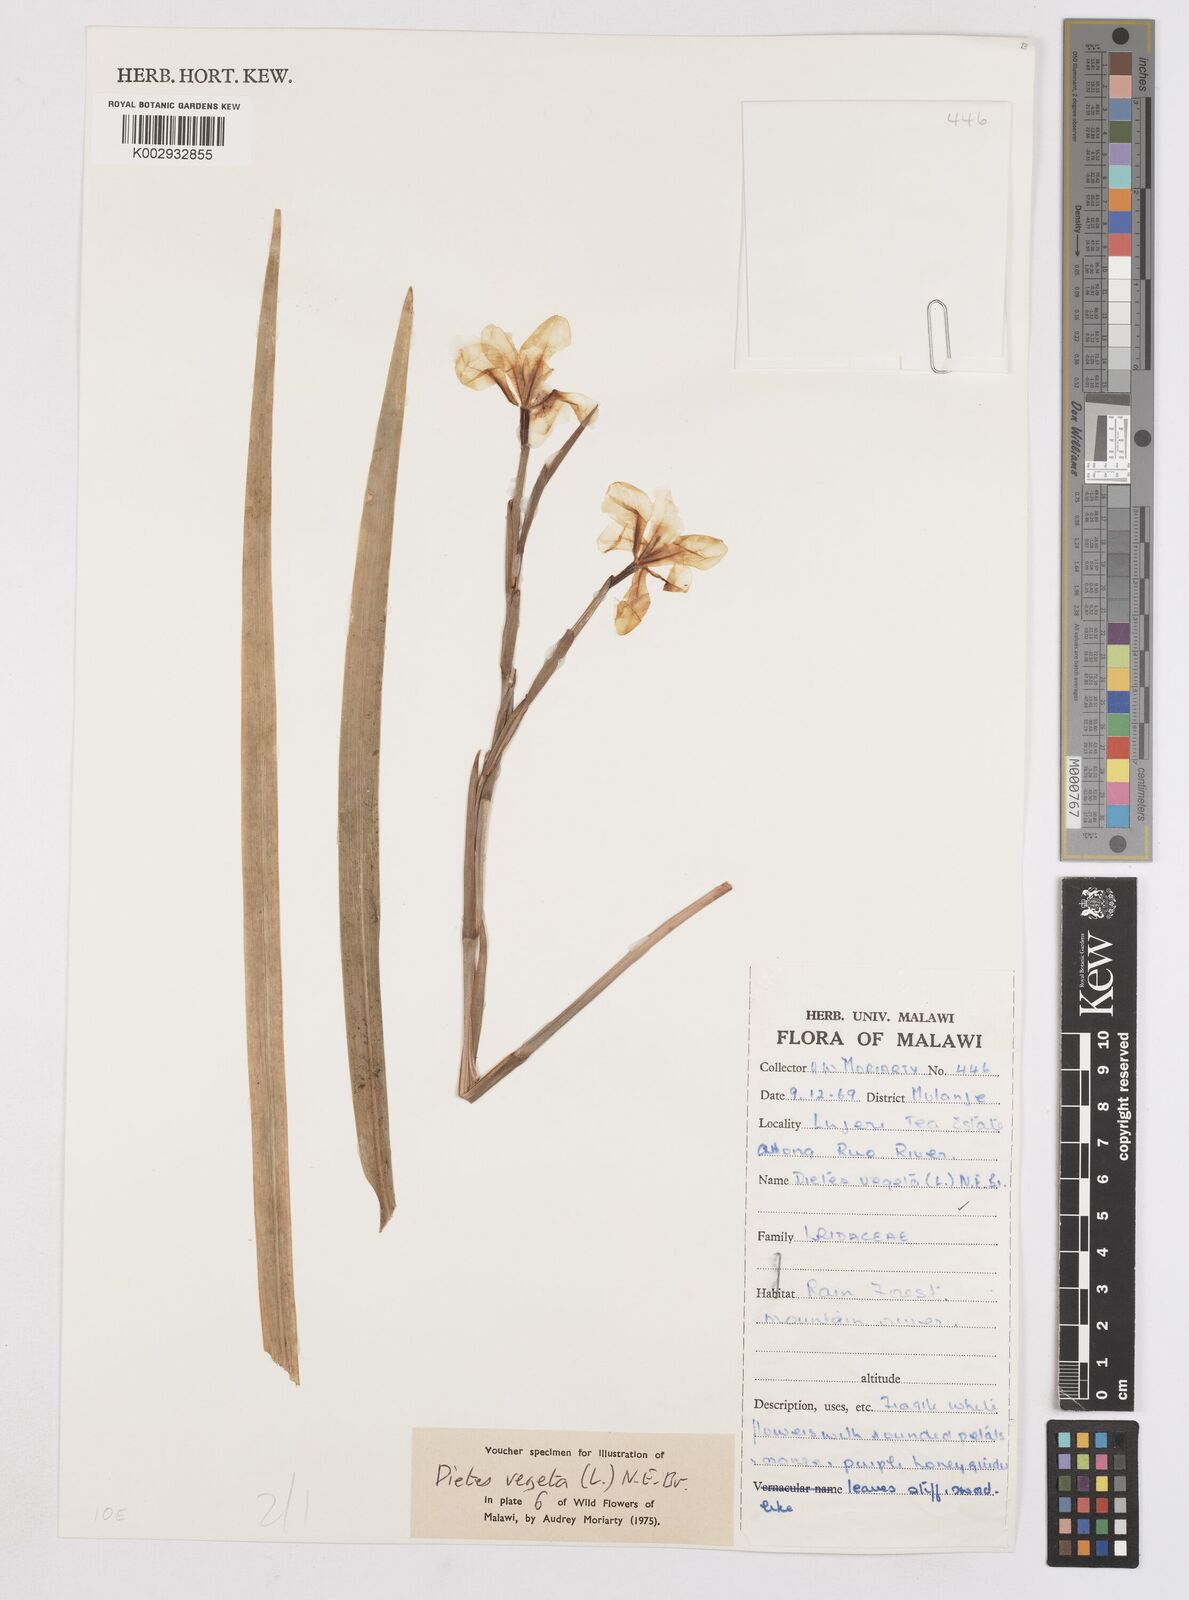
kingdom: Plantae
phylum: Tracheophyta
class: Liliopsida
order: Asparagales
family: Iridaceae
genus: Dietes
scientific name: Dietes iridioides
